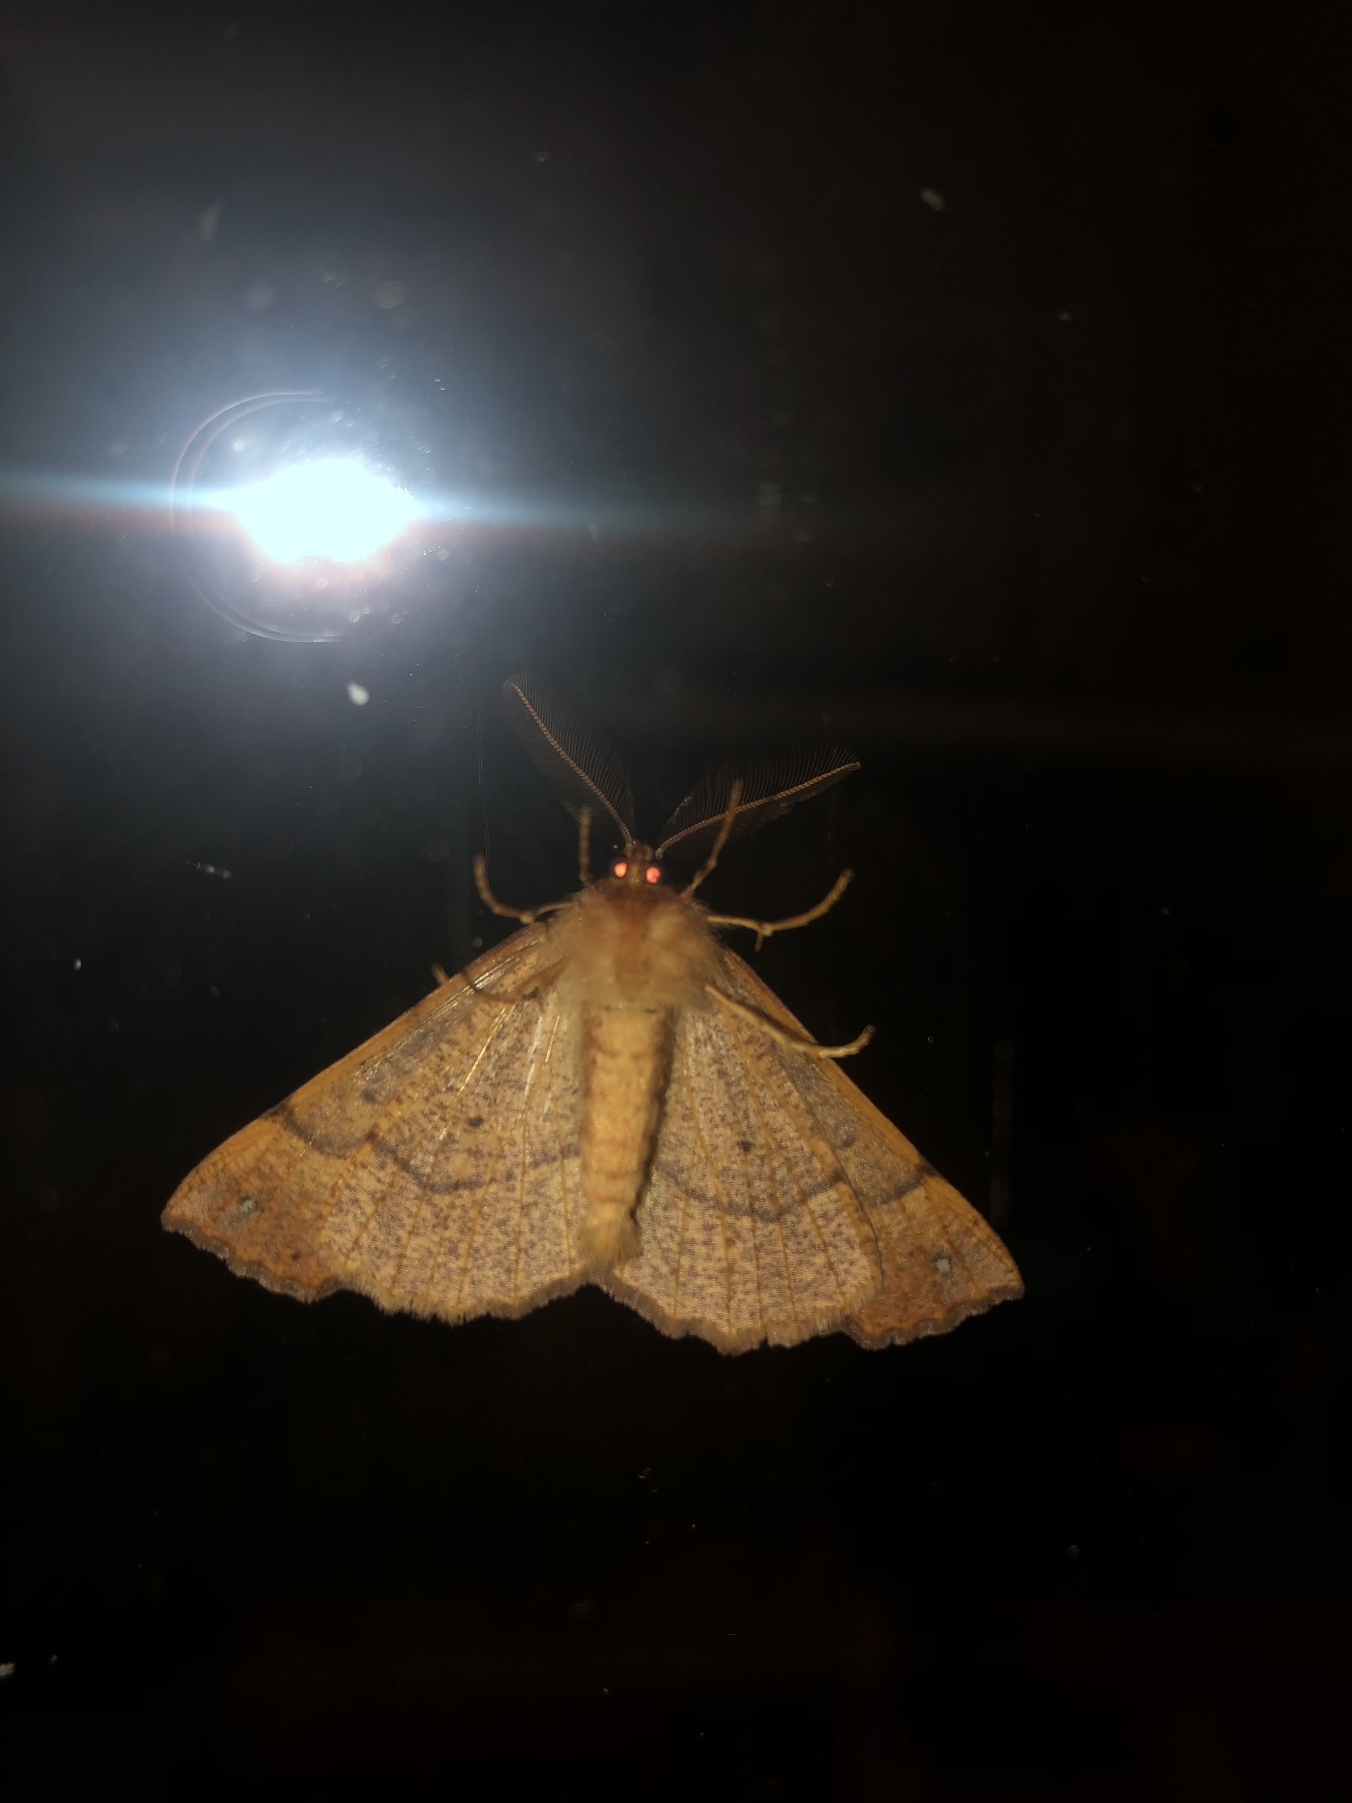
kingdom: Animalia
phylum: Arthropoda
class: Insecta
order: Lepidoptera
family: Geometridae
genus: Colotois
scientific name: Colotois pennaria
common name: Løvfaldsmåler
